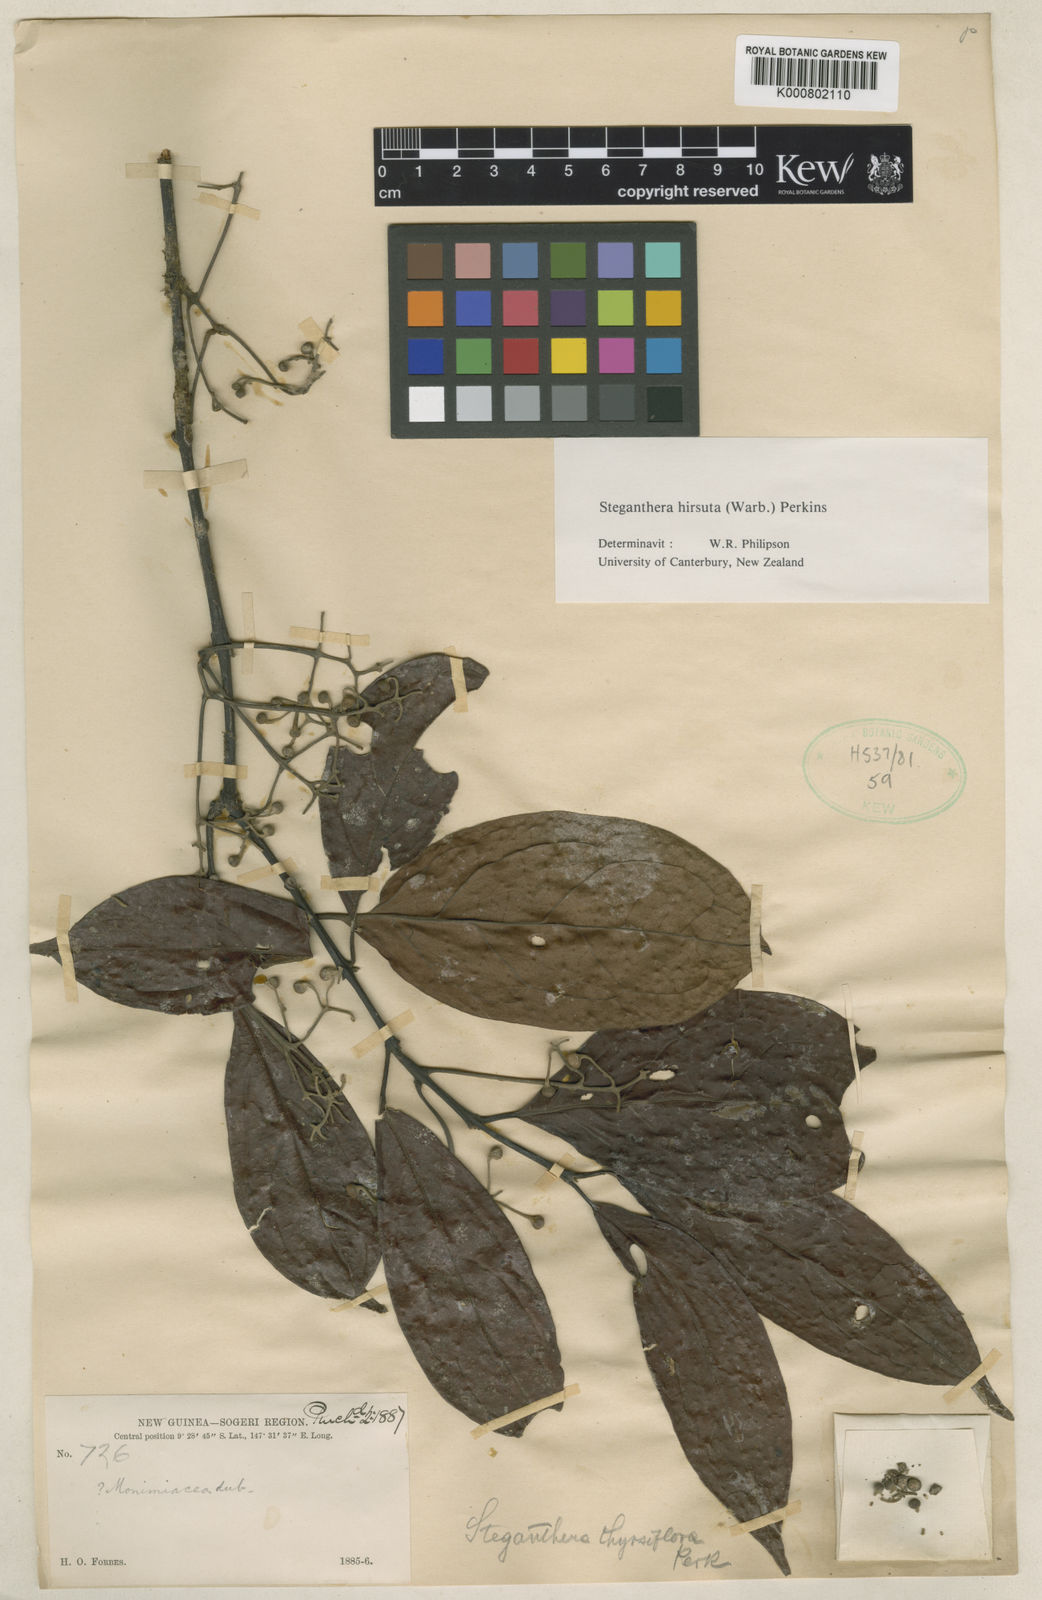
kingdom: Plantae
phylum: Tracheophyta
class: Magnoliopsida
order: Laurales
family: Monimiaceae
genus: Steganthera
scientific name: Steganthera hirsuta
